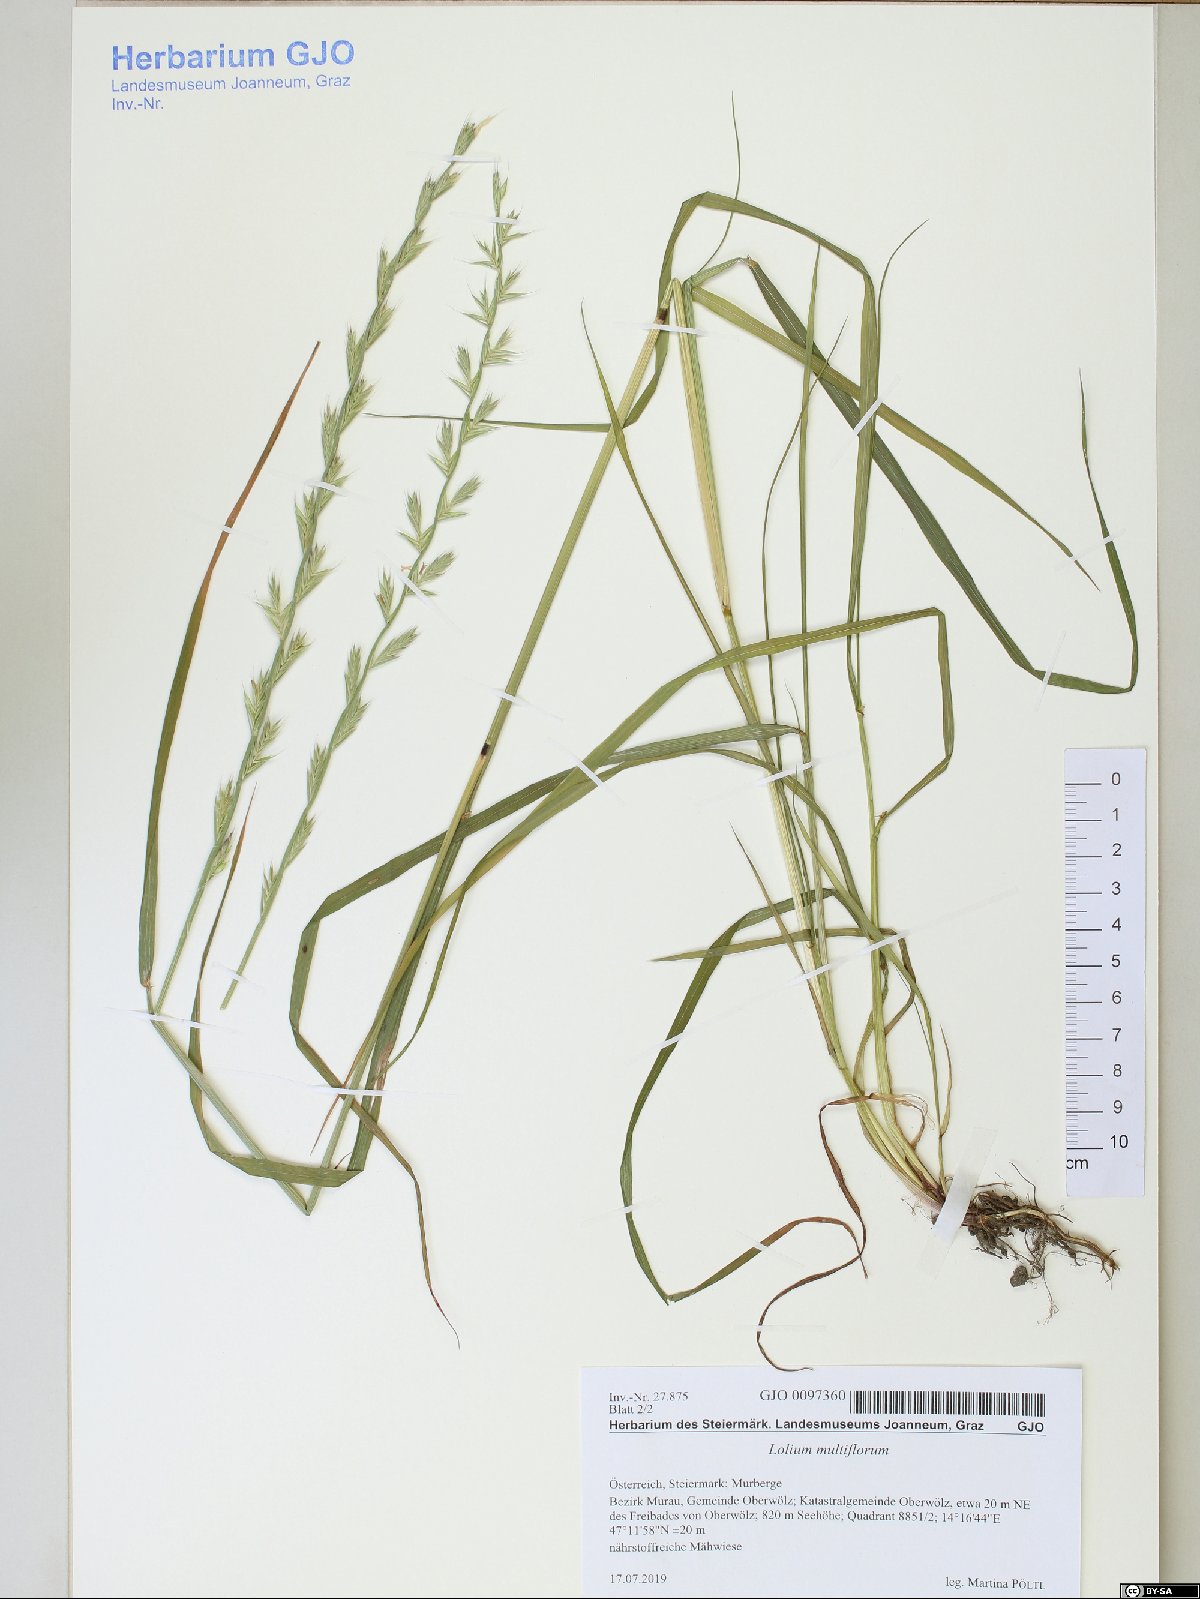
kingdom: Plantae
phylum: Tracheophyta
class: Liliopsida
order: Poales
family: Poaceae
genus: Lolium
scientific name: Lolium multiflorum
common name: Annual ryegrass
